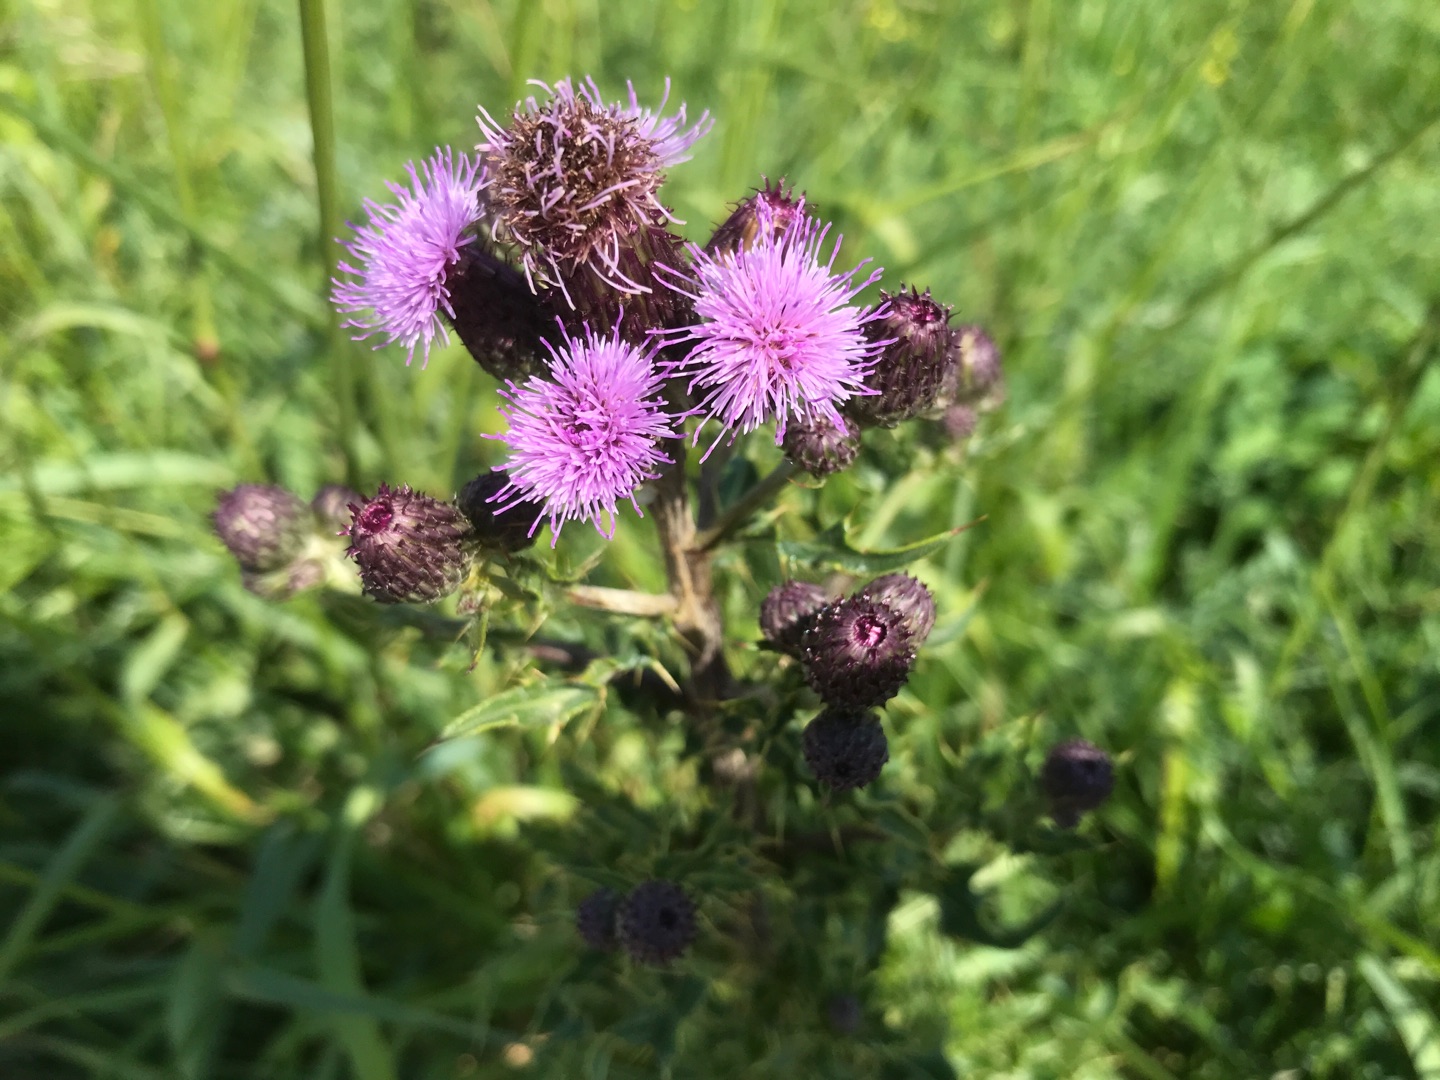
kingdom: Plantae
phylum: Tracheophyta
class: Magnoliopsida
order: Asterales
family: Asteraceae
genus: Cirsium
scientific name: Cirsium arvense
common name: Ager-tidsel
